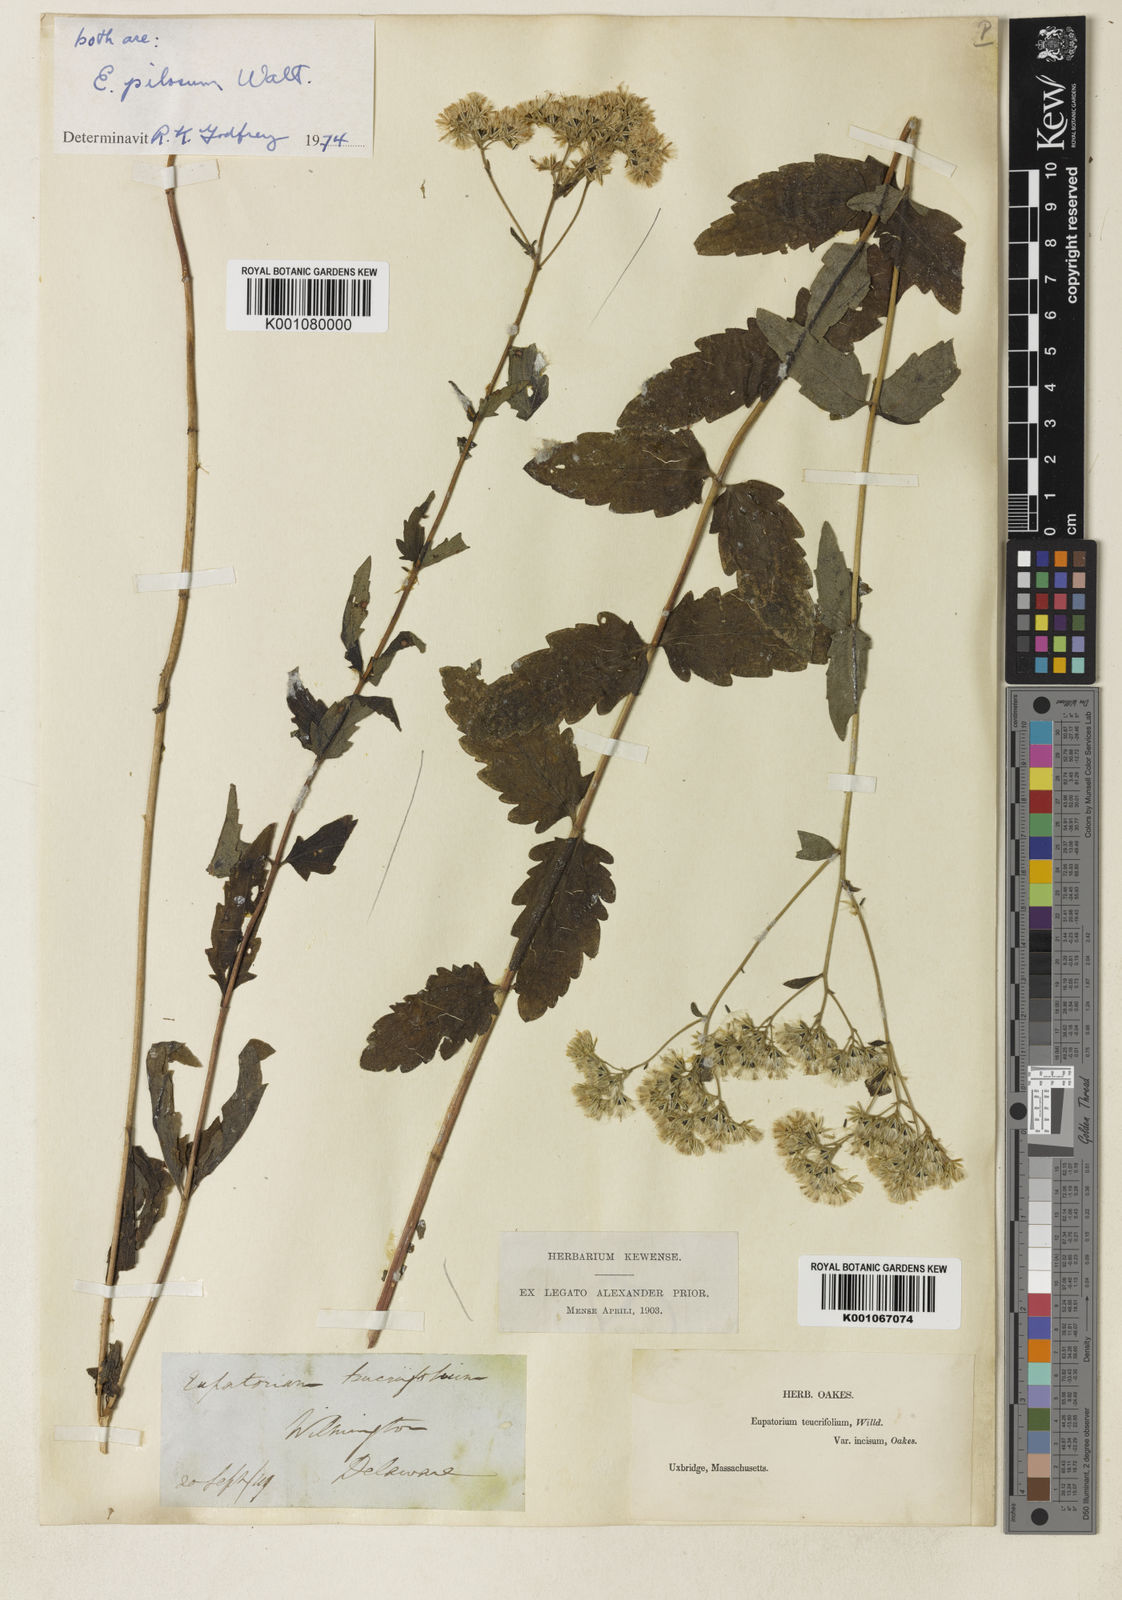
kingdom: Plantae
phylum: Tracheophyta
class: Magnoliopsida
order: Asterales
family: Asteraceae
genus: Eupatorium
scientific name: Eupatorium pilosum
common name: Rough boneset
